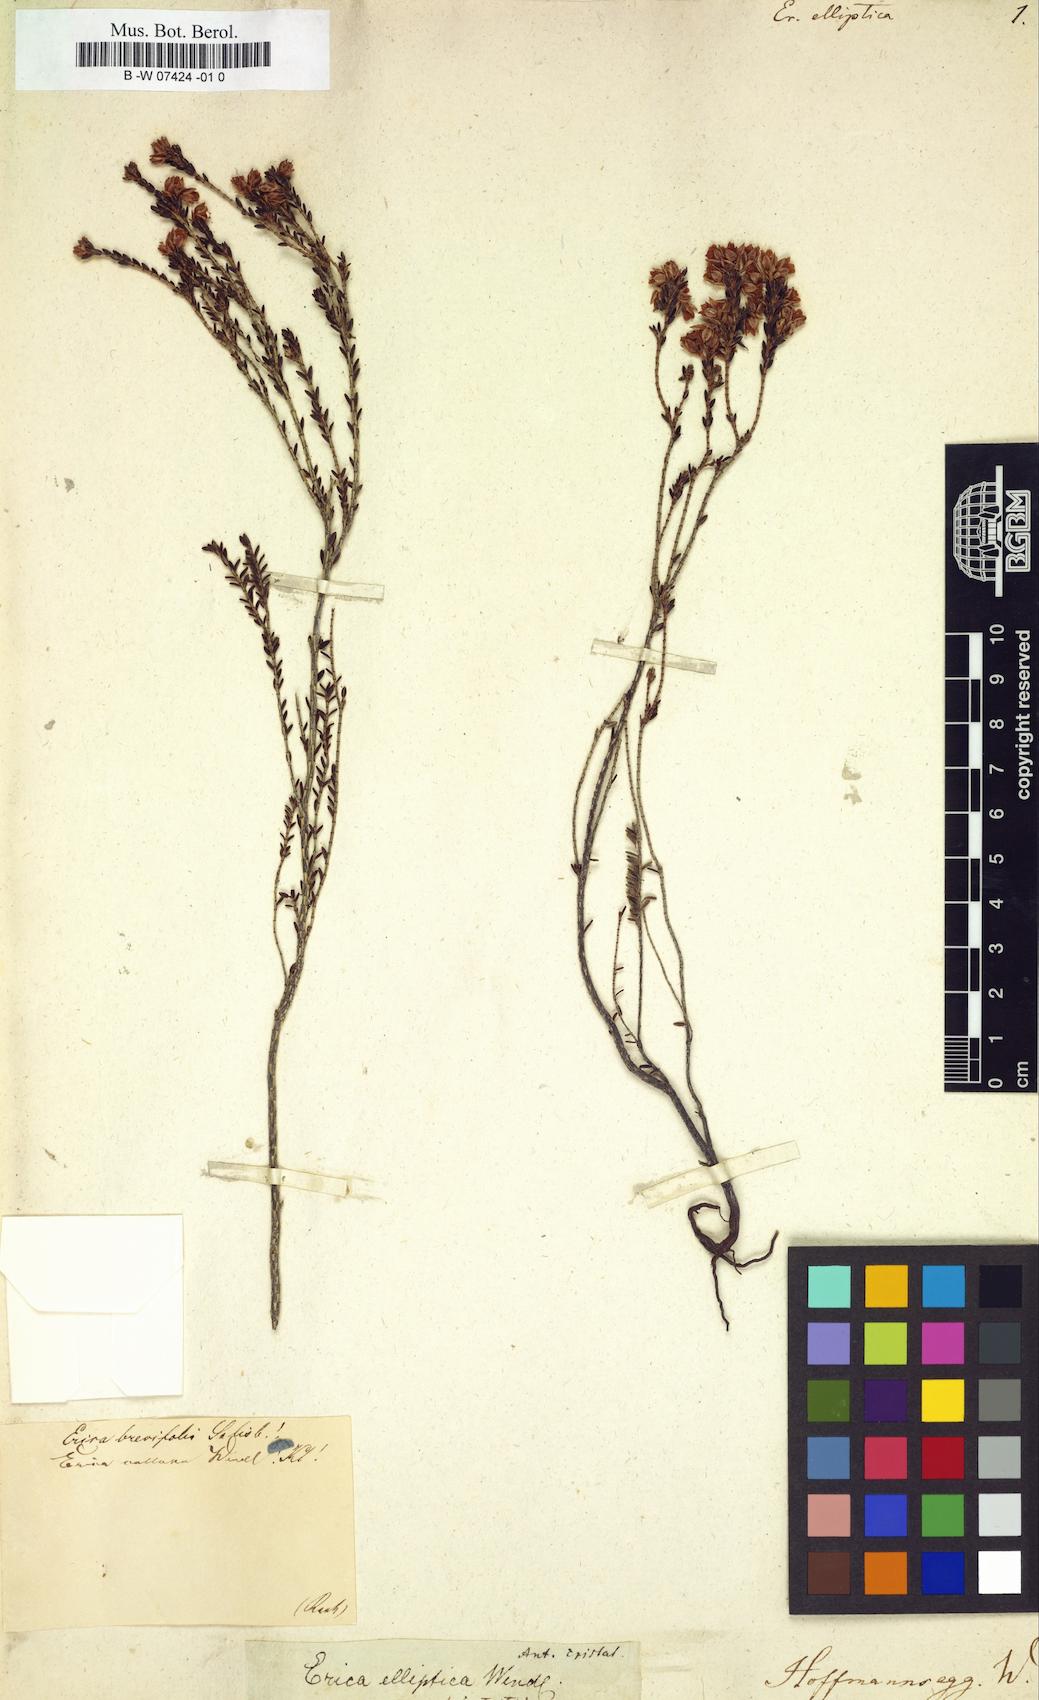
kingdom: Plantae
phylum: Tracheophyta
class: Magnoliopsida
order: Ericales
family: Ericaceae
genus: Erica
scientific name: Erica
